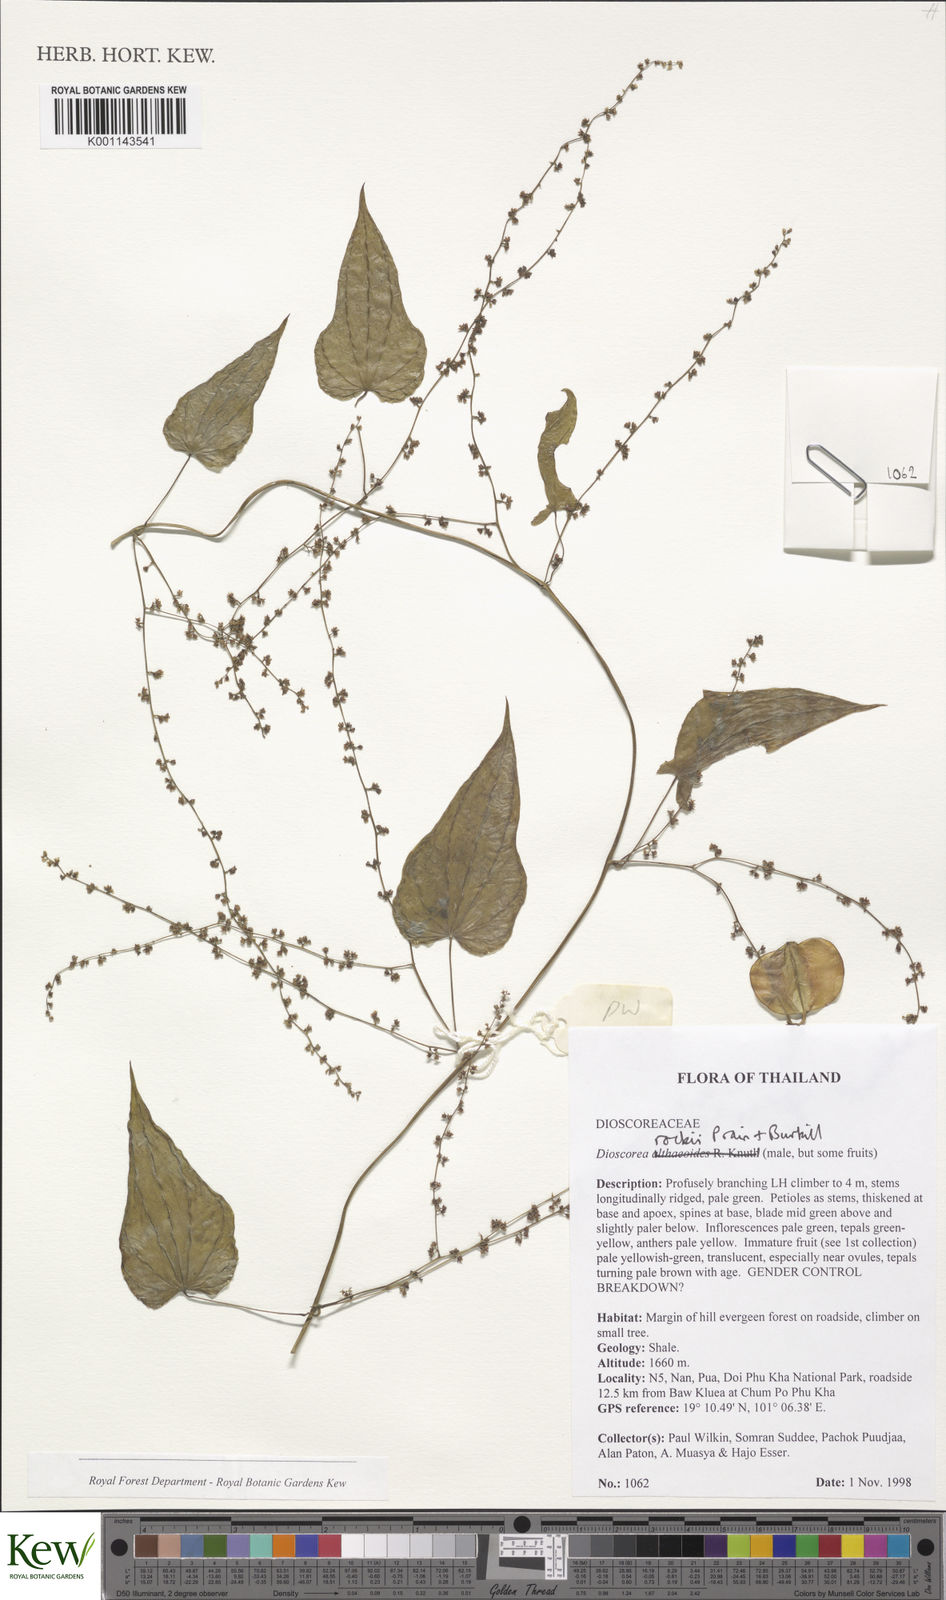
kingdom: Plantae
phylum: Tracheophyta
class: Liliopsida
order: Dioscoreales
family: Dioscoreaceae
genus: Dioscorea
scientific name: Dioscorea rockii
